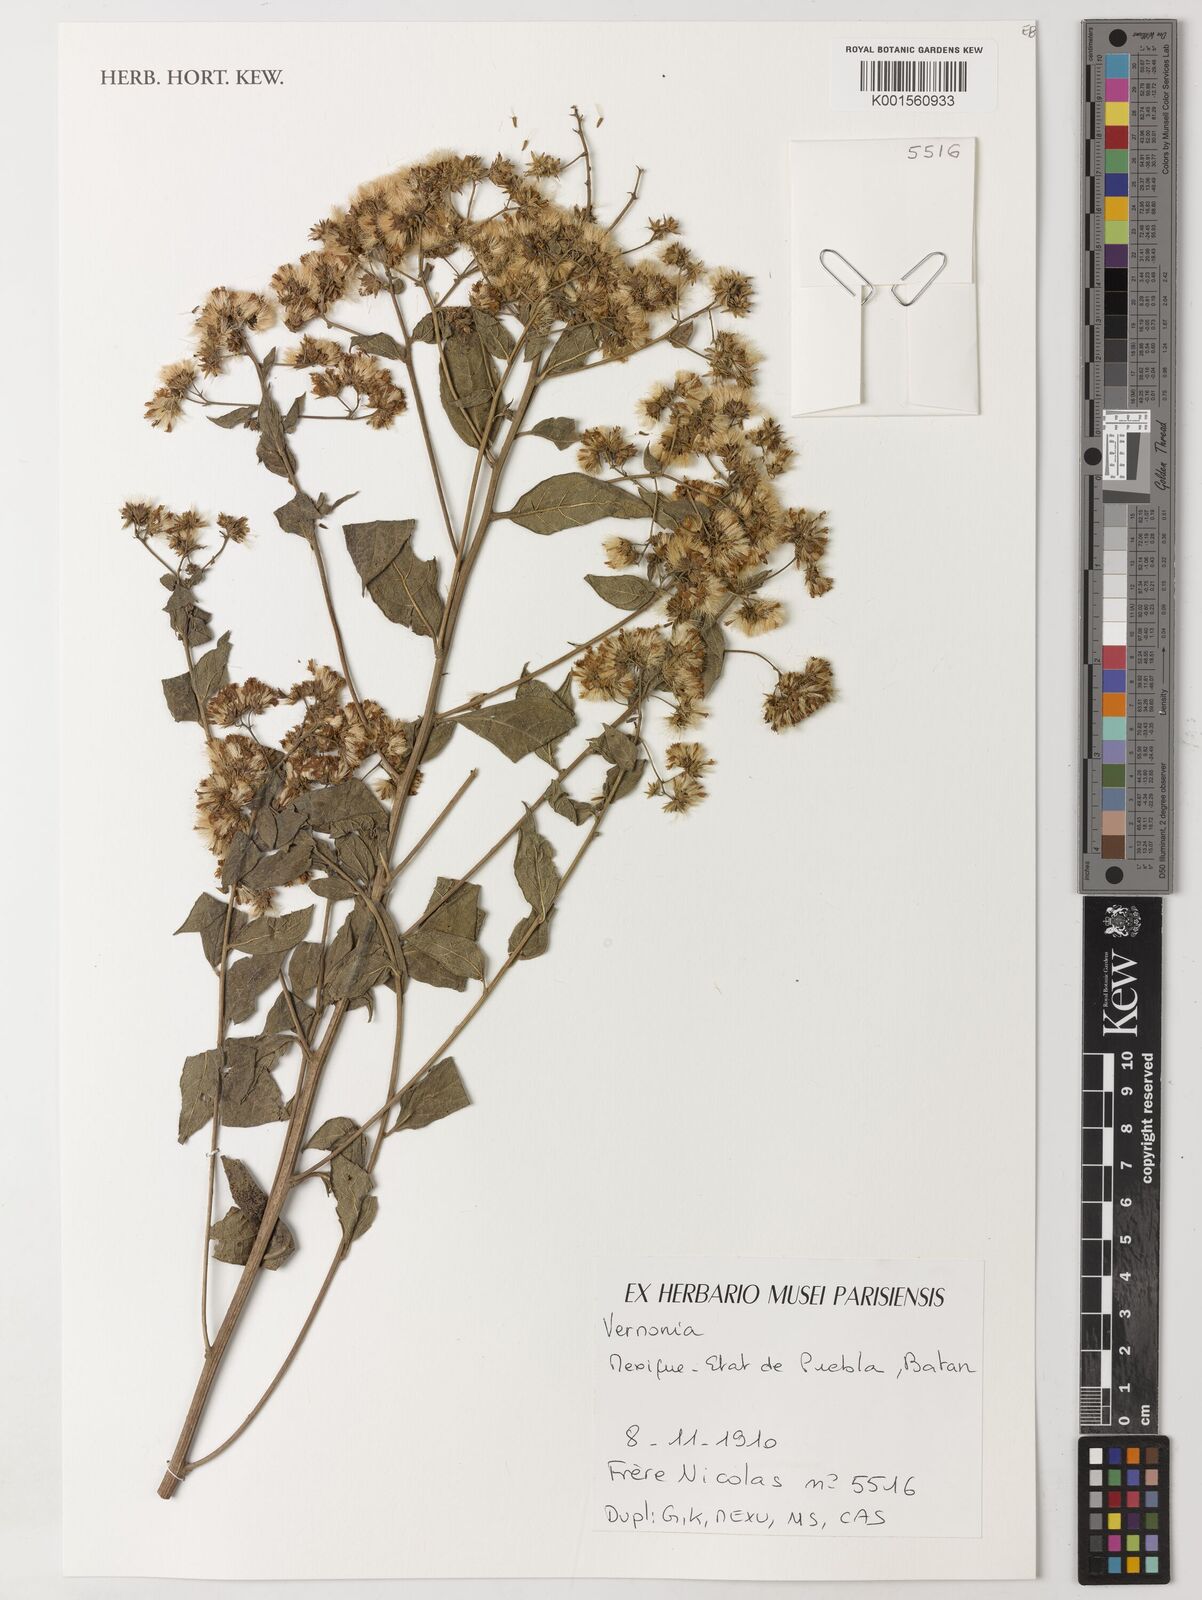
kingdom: Plantae
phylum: Tracheophyta
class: Magnoliopsida
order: Asterales
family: Asteraceae
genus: Vernonia
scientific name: Vernonia
